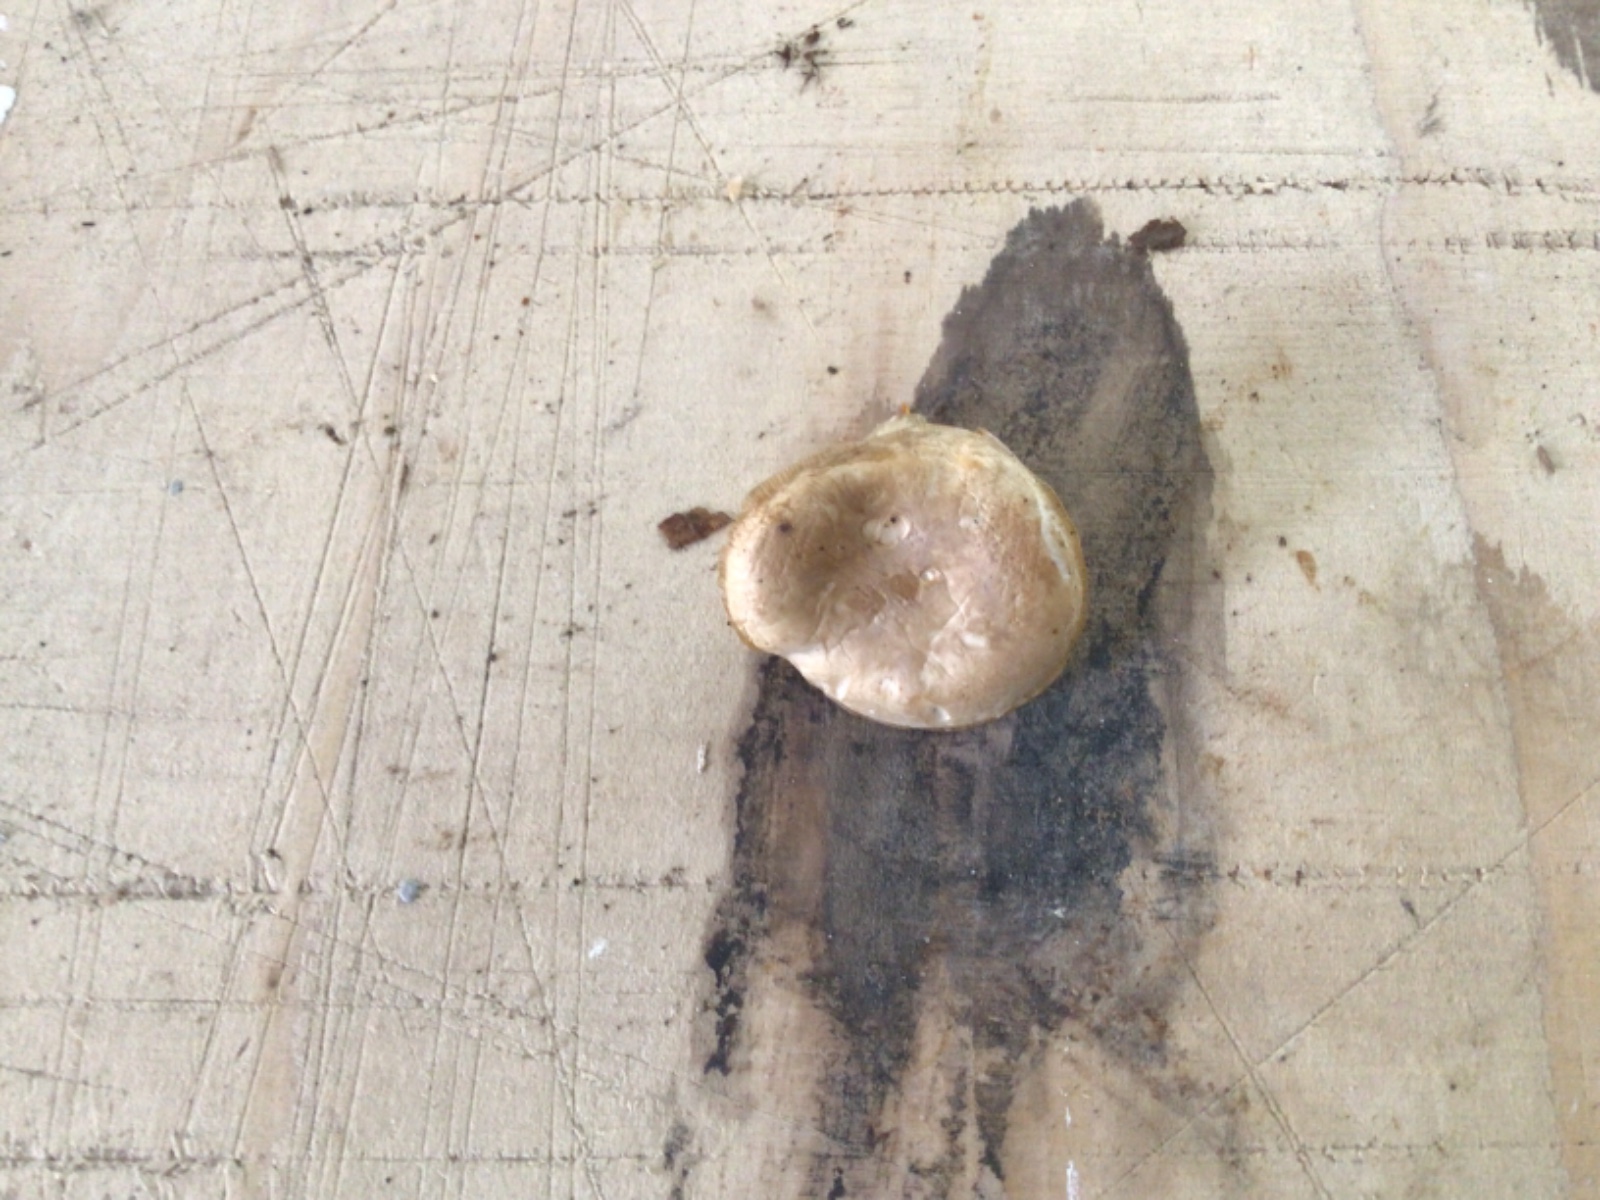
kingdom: Fungi
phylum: Basidiomycota
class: Agaricomycetes
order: Agaricales
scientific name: Agaricales
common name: champignonordenen
